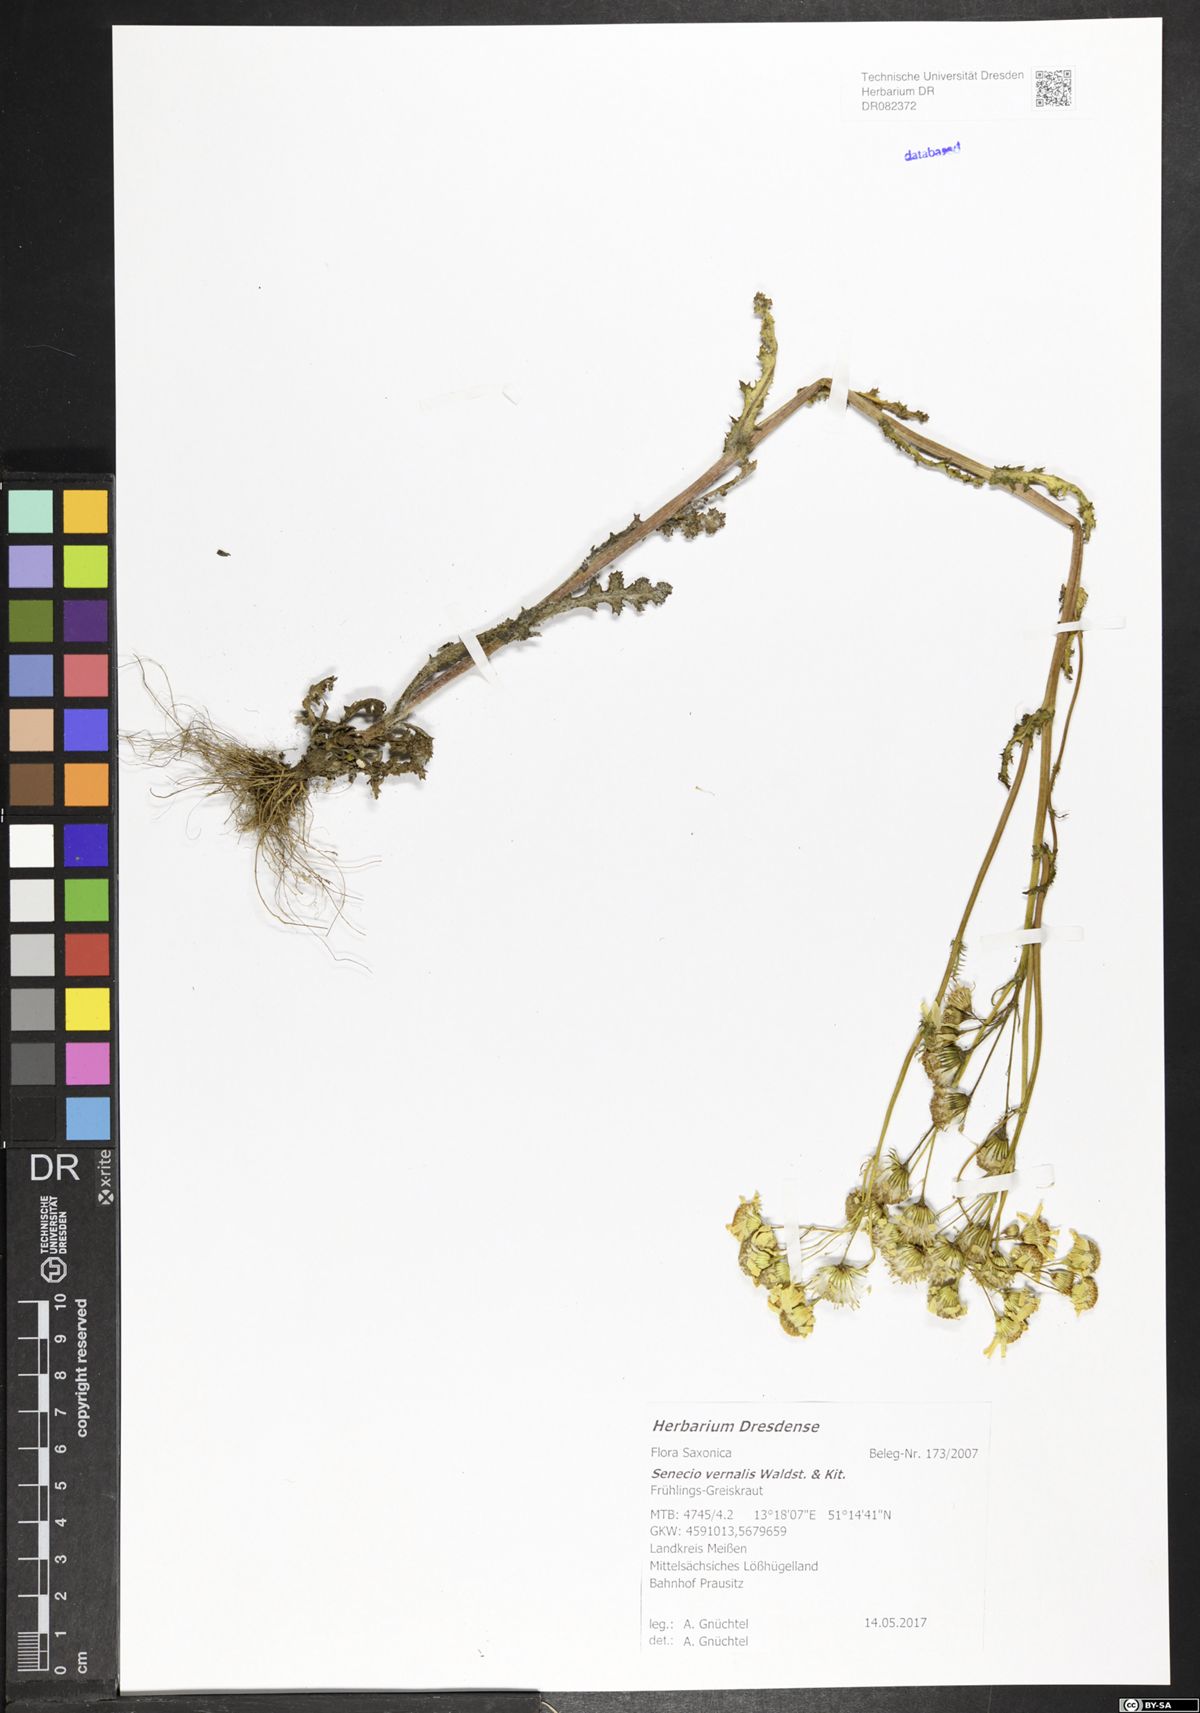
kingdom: Plantae
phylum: Tracheophyta
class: Magnoliopsida
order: Asterales
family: Asteraceae
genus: Senecio
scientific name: Senecio vernalis
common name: Eastern groundsel
